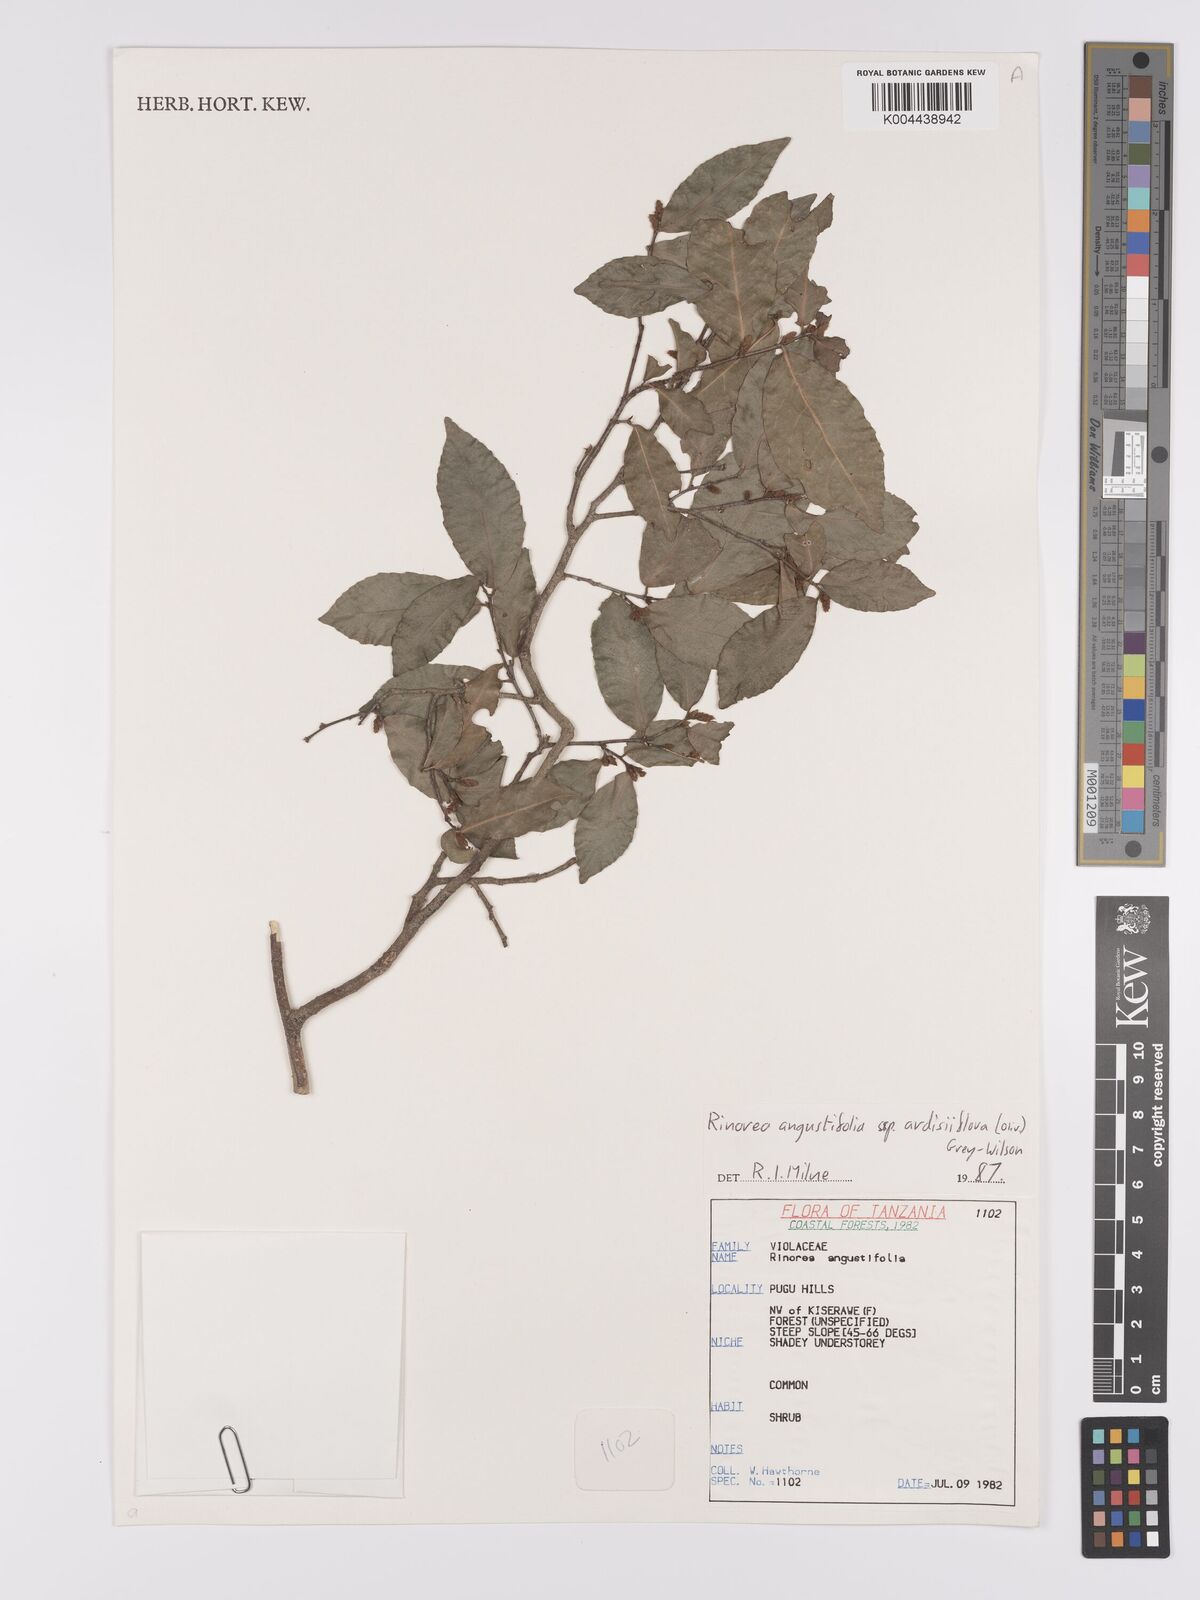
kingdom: Plantae
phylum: Tracheophyta
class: Magnoliopsida
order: Malpighiales
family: Violaceae
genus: Rinorea
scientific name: Rinorea angustifolia
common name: White violet-bush
